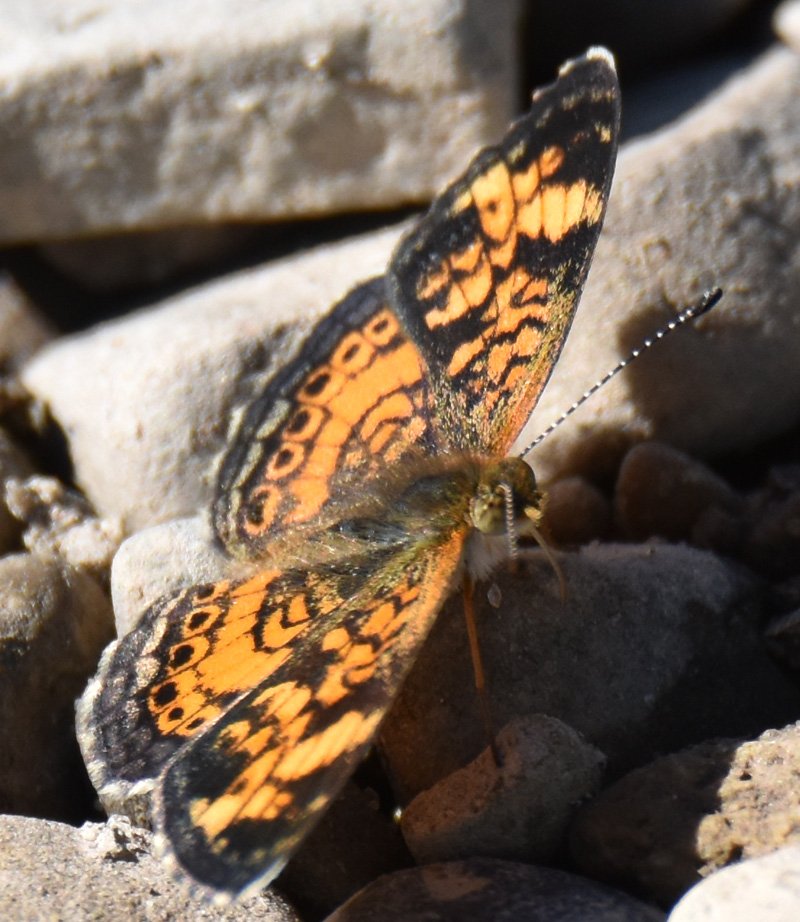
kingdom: Animalia
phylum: Arthropoda
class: Insecta
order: Lepidoptera
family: Nymphalidae
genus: Phyciodes
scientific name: Phyciodes tharos
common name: Pearl Crescent
